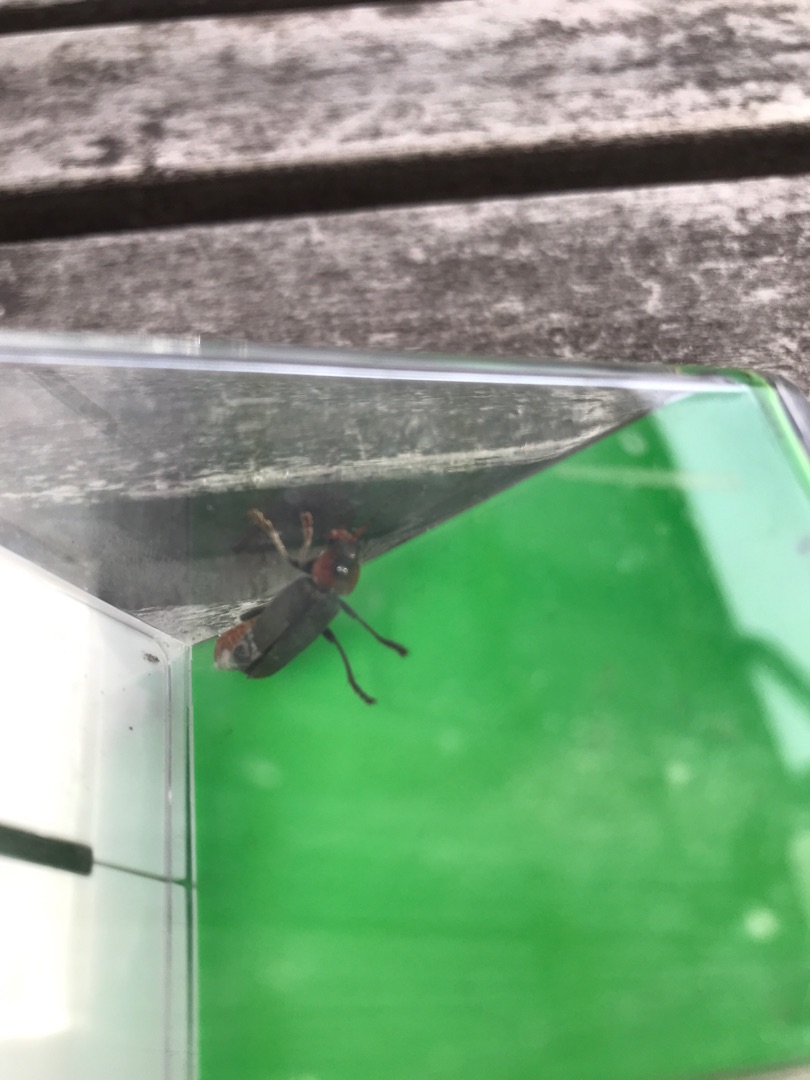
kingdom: Animalia
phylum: Arthropoda
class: Insecta
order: Coleoptera
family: Cantharidae
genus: Cantharis
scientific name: Cantharis fusca
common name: Stor blødvinge
